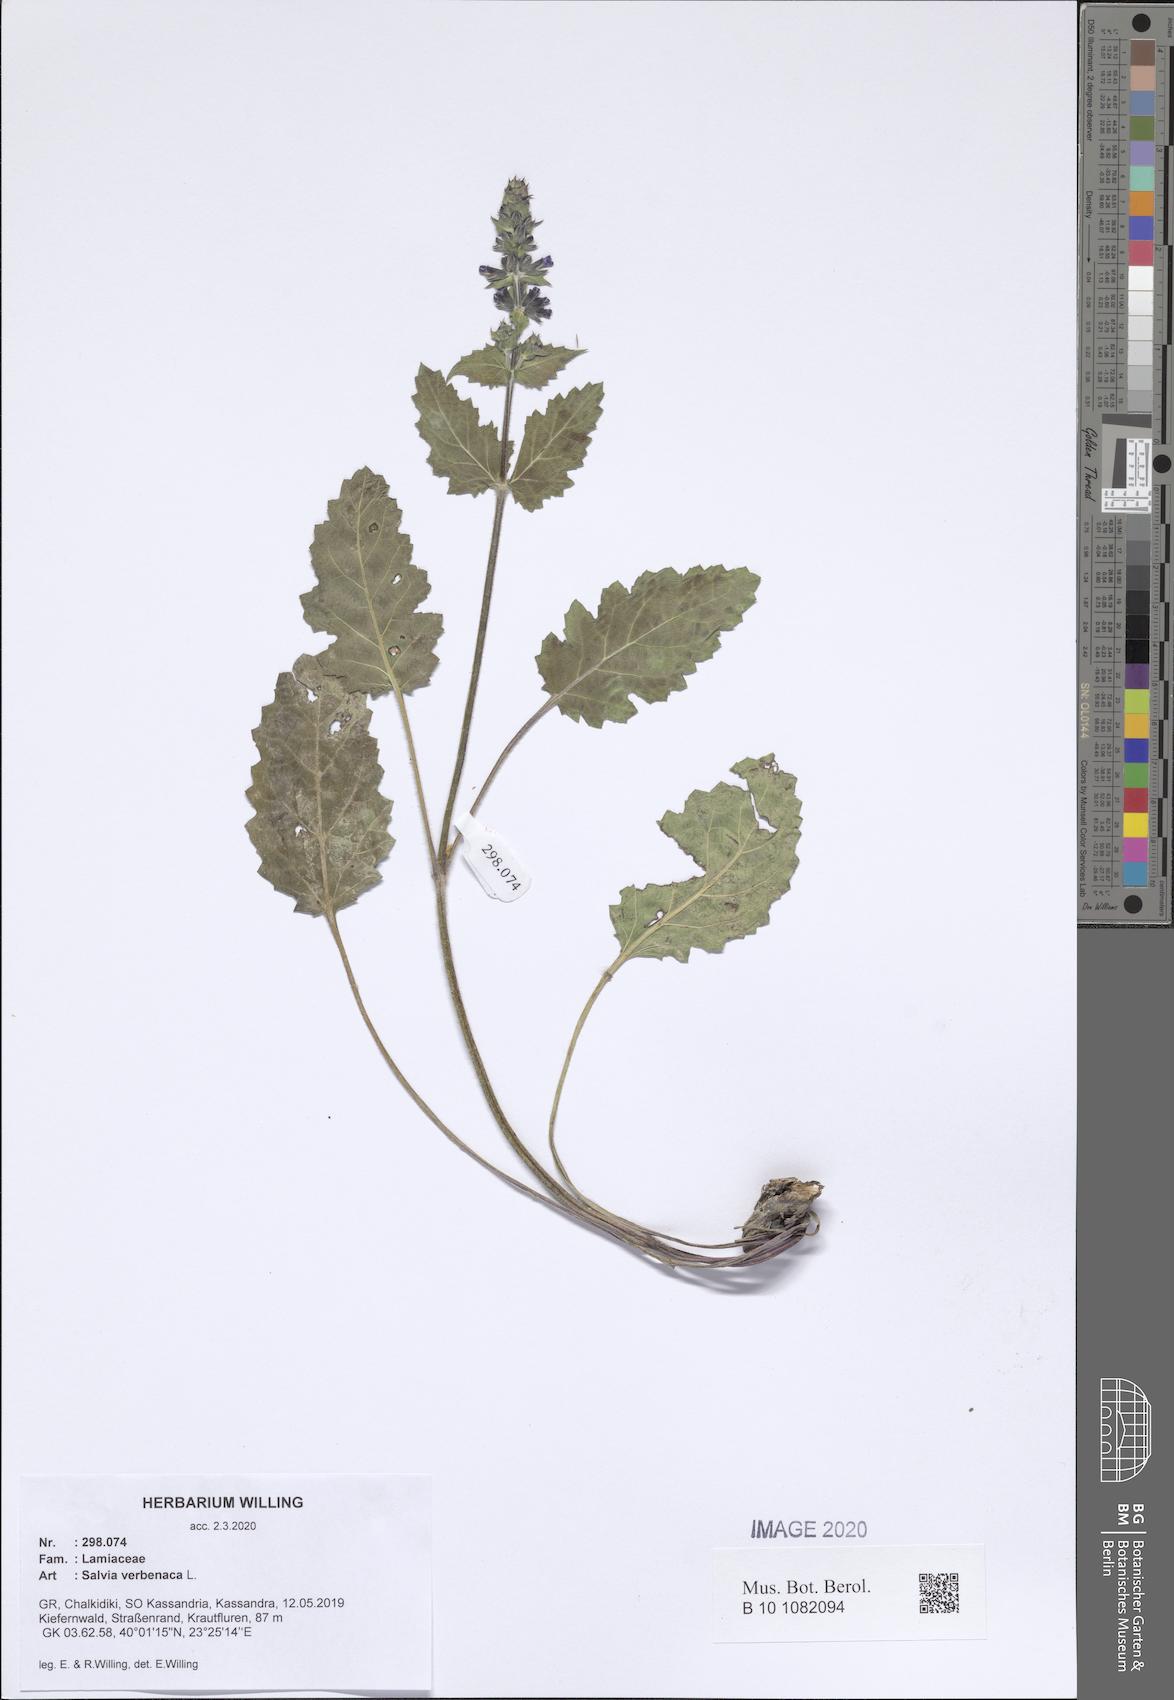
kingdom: Plantae
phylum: Tracheophyta
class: Magnoliopsida
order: Lamiales
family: Lamiaceae
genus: Salvia
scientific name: Salvia verbenaca
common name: Wild clary
